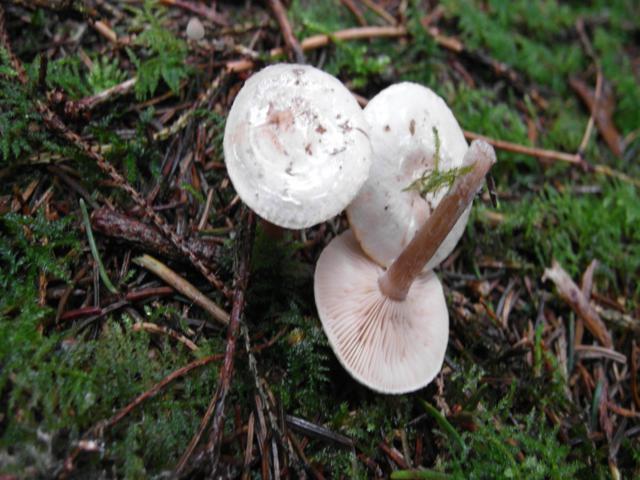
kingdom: Fungi
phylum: Basidiomycota
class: Agaricomycetes
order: Agaricales
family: Tricholomataceae
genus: Ripartites
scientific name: Ripartites tricholoma
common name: almindelig skæghat
